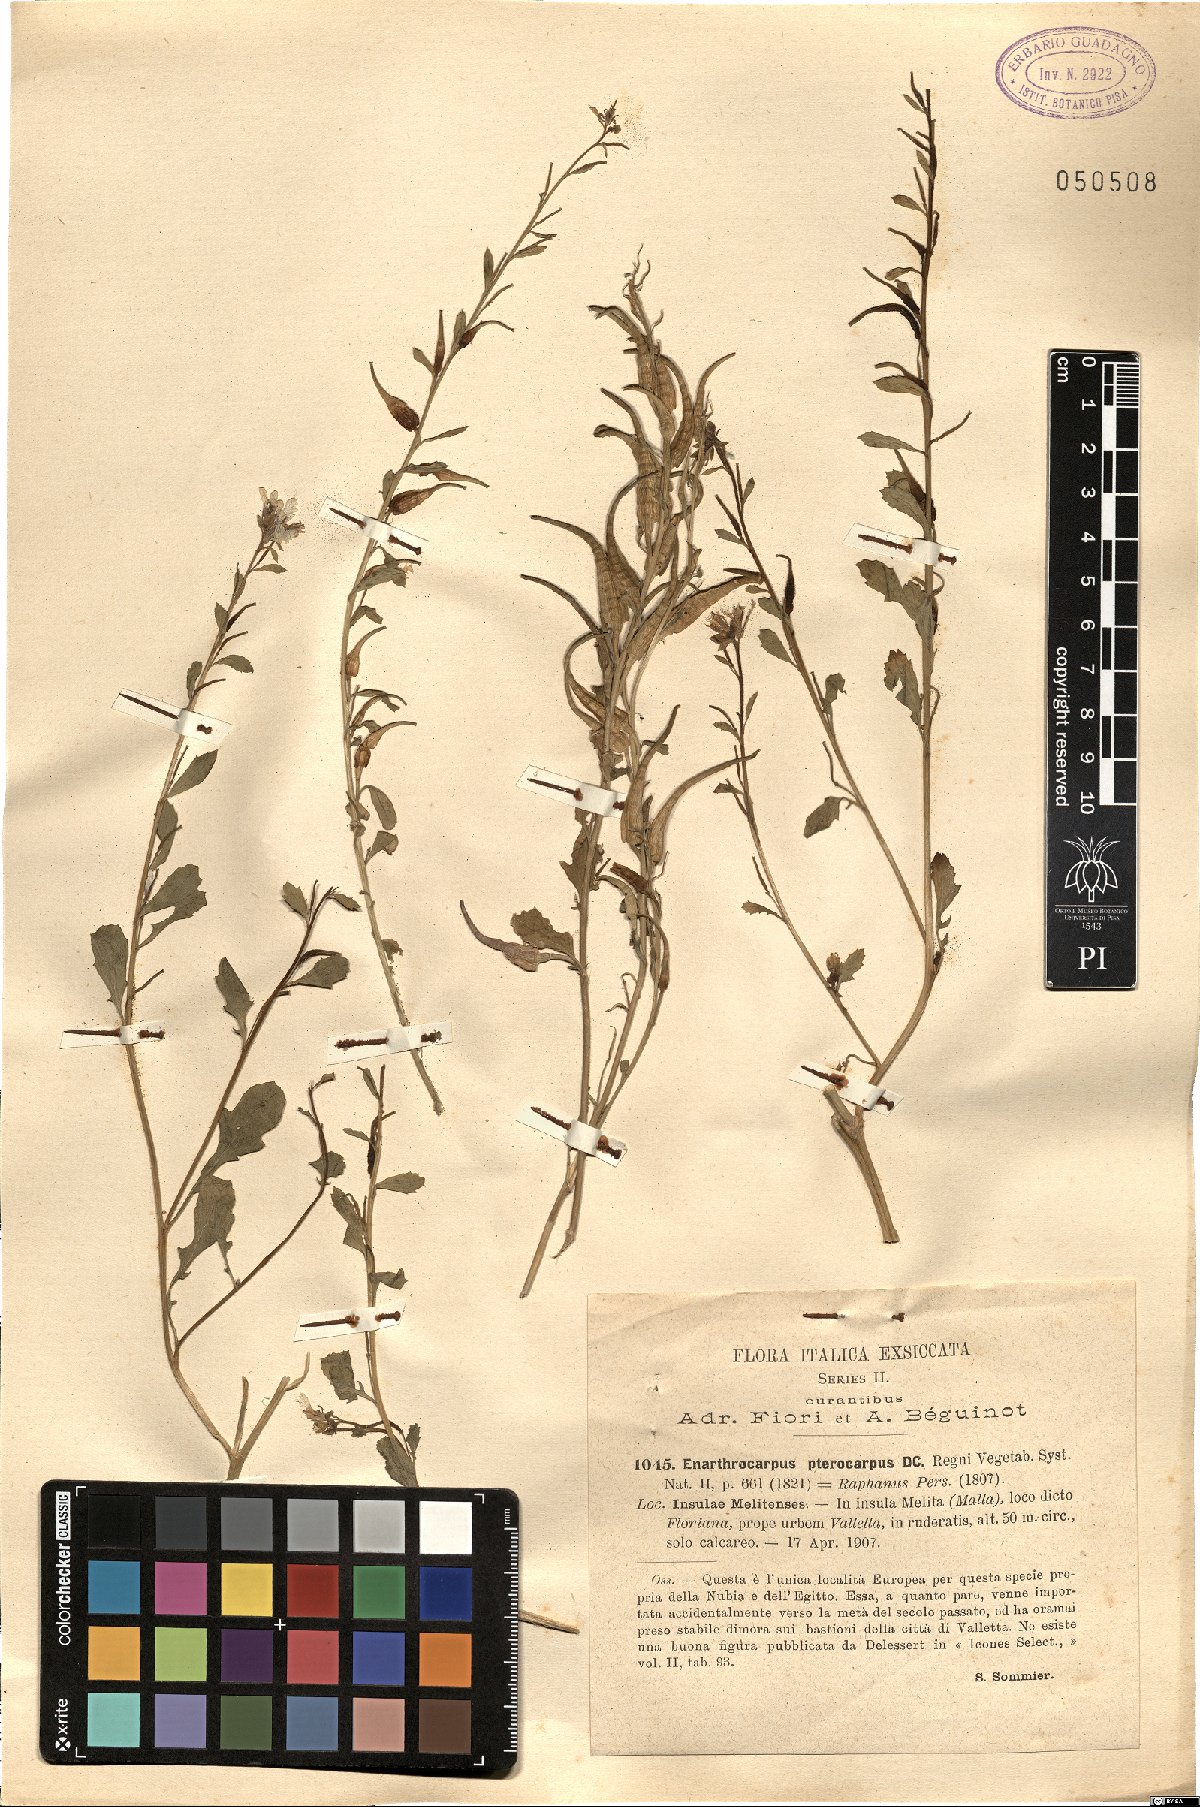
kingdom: Plantae
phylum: Tracheophyta
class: Magnoliopsida
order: Brassicales
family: Brassicaceae
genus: Enarthrocarpus
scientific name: Enarthrocarpus pterocarpus
